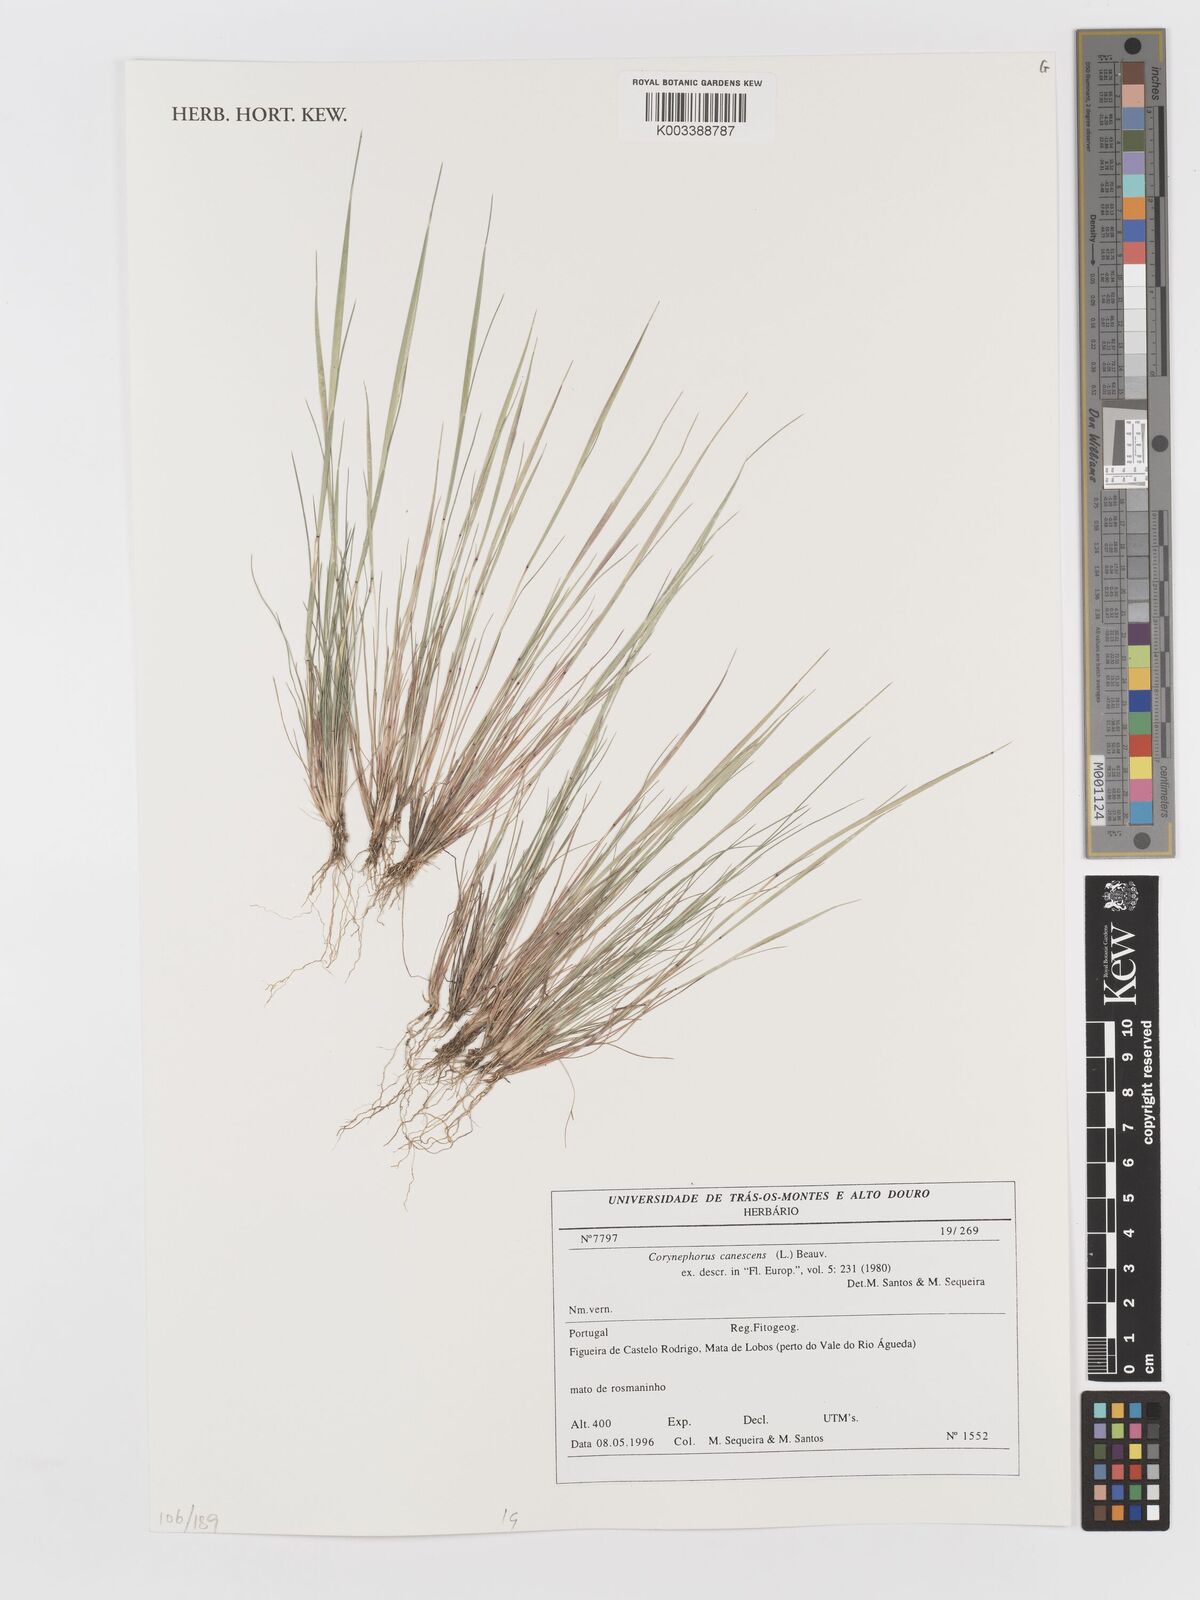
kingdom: Plantae
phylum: Tracheophyta
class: Liliopsida
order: Poales
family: Poaceae
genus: Corynephorus
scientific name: Corynephorus canescens
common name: Grey hair-grass
